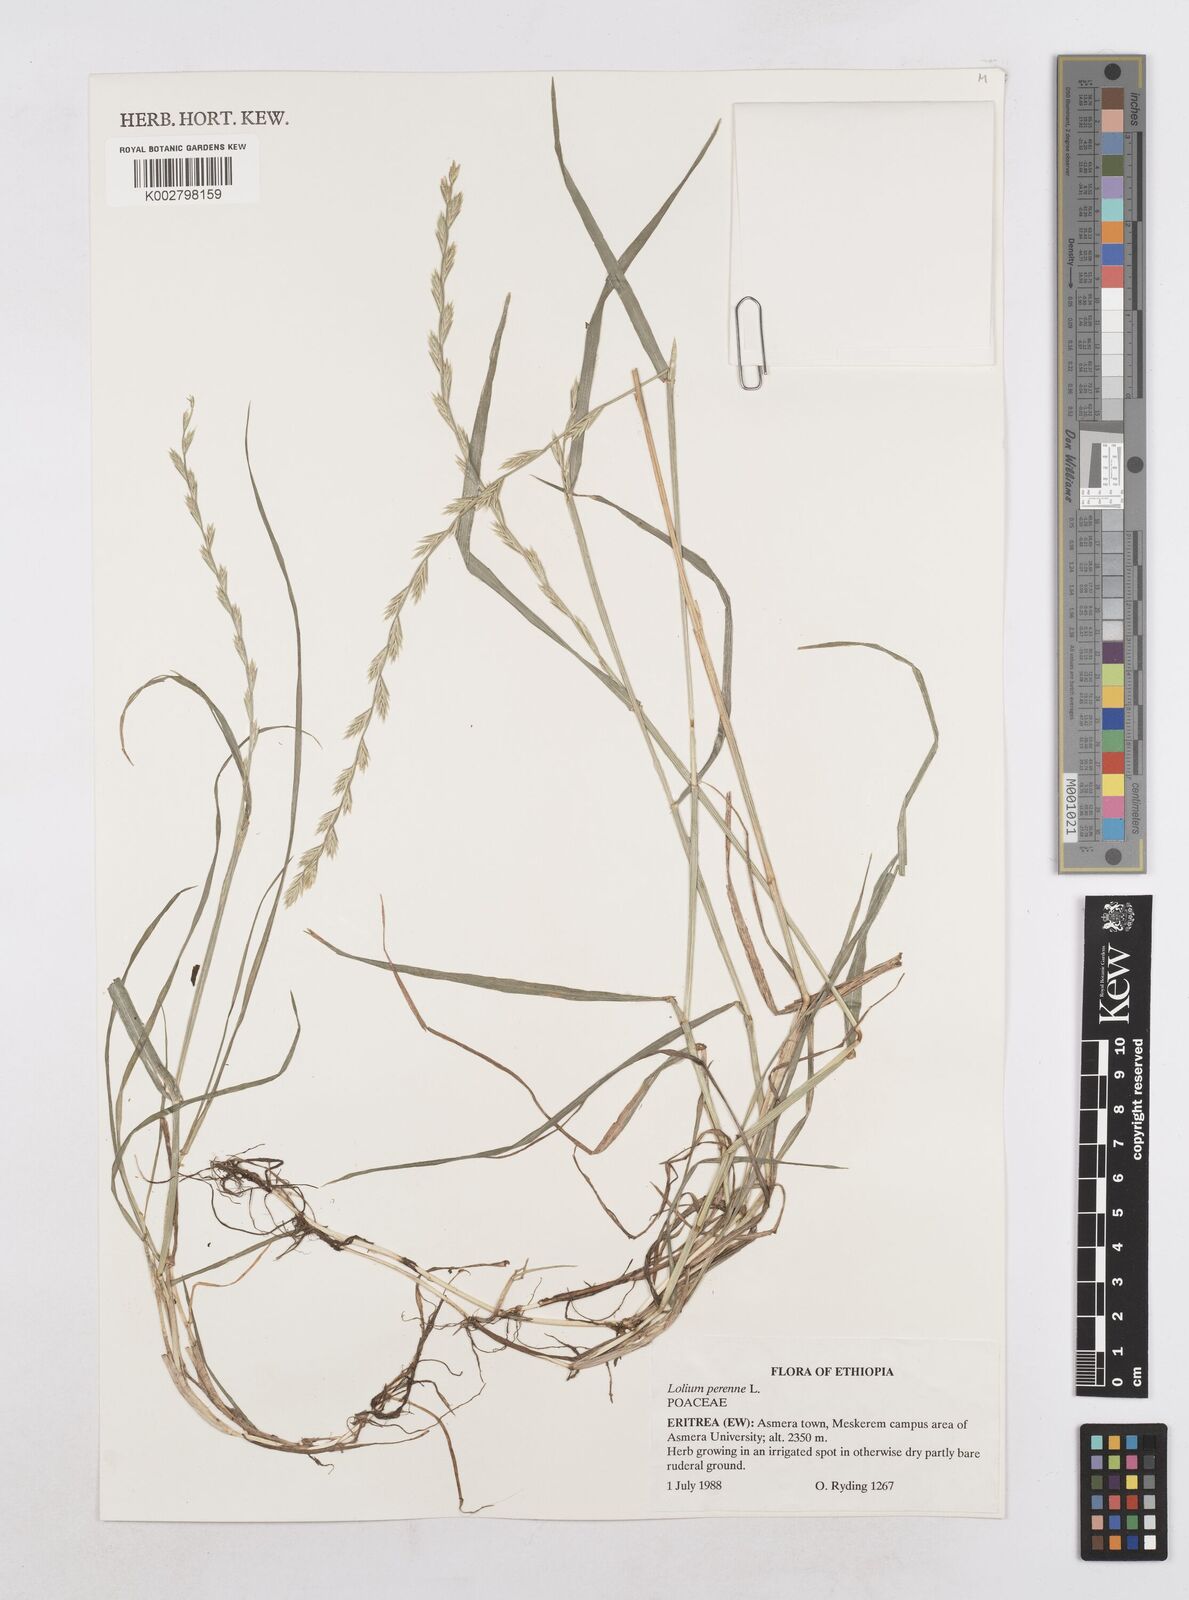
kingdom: Plantae
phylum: Tracheophyta
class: Liliopsida
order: Poales
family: Poaceae
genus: Lolium
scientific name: Lolium perenne
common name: Perennial ryegrass
